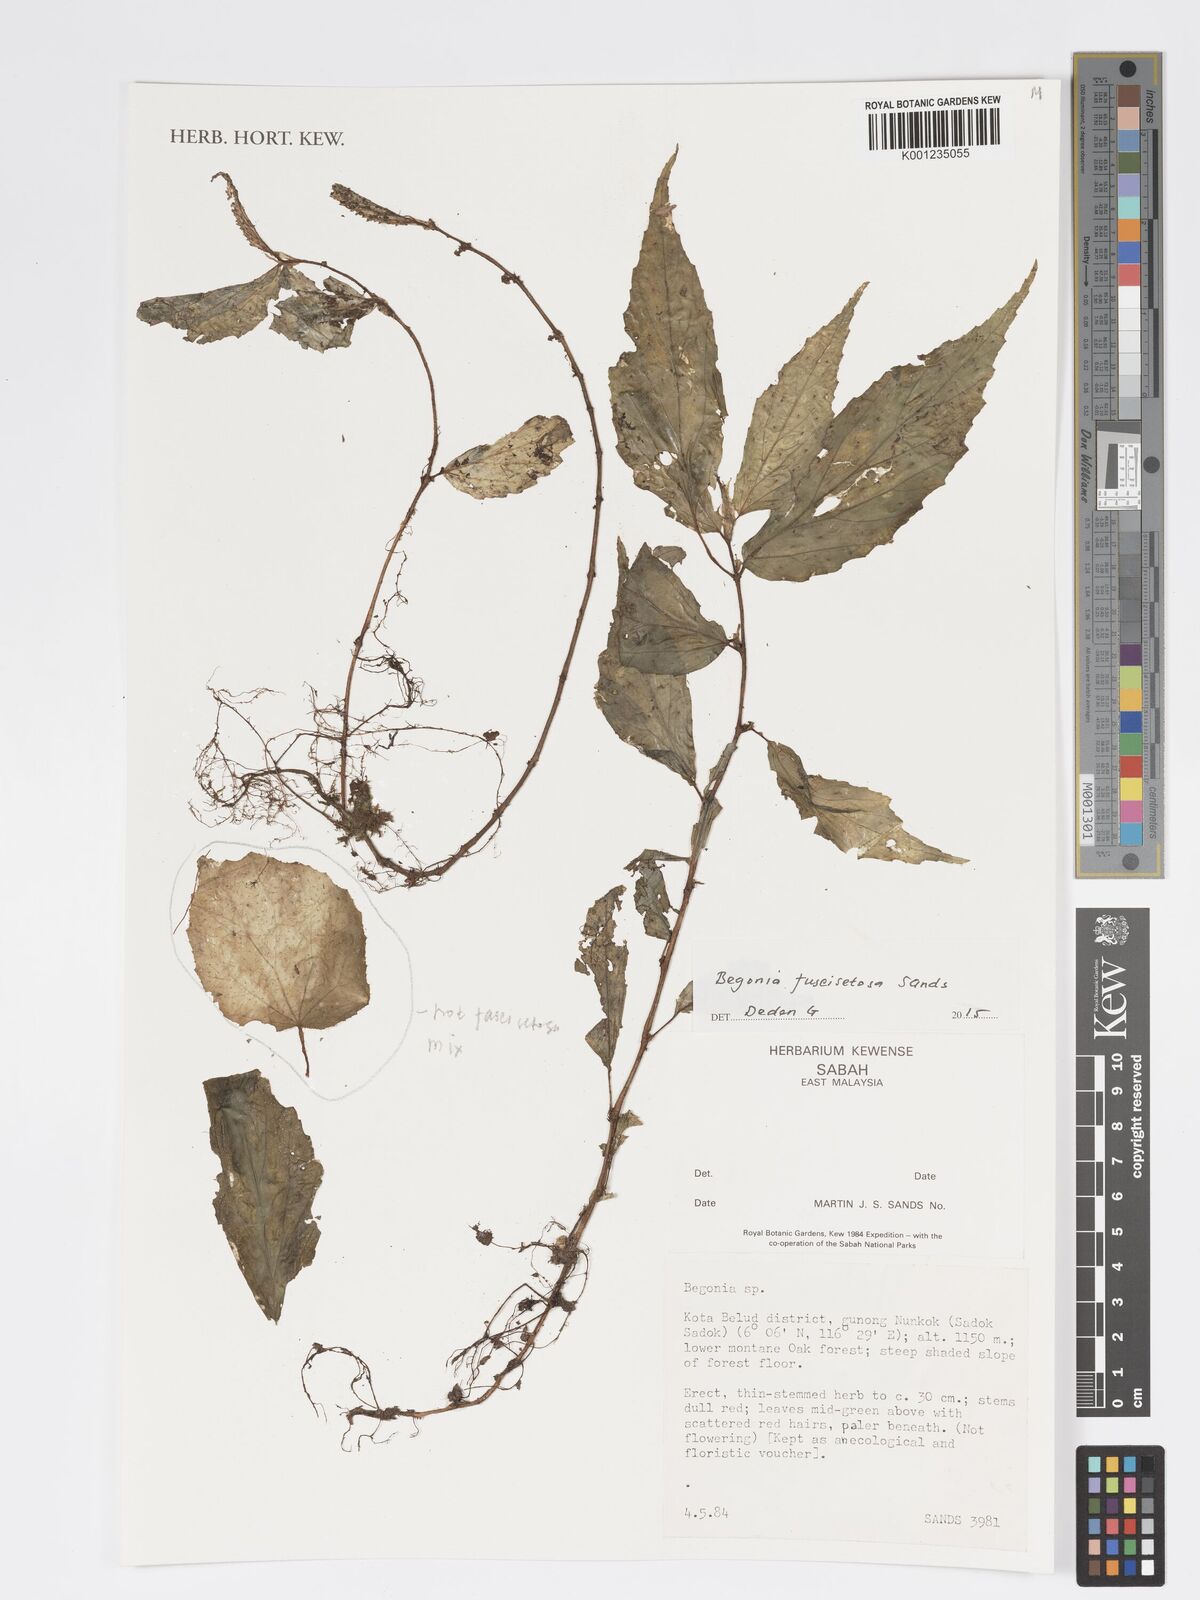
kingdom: Plantae
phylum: Tracheophyta
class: Magnoliopsida
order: Cucurbitales
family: Begoniaceae
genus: Begonia
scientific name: Begonia fuscisetosa
